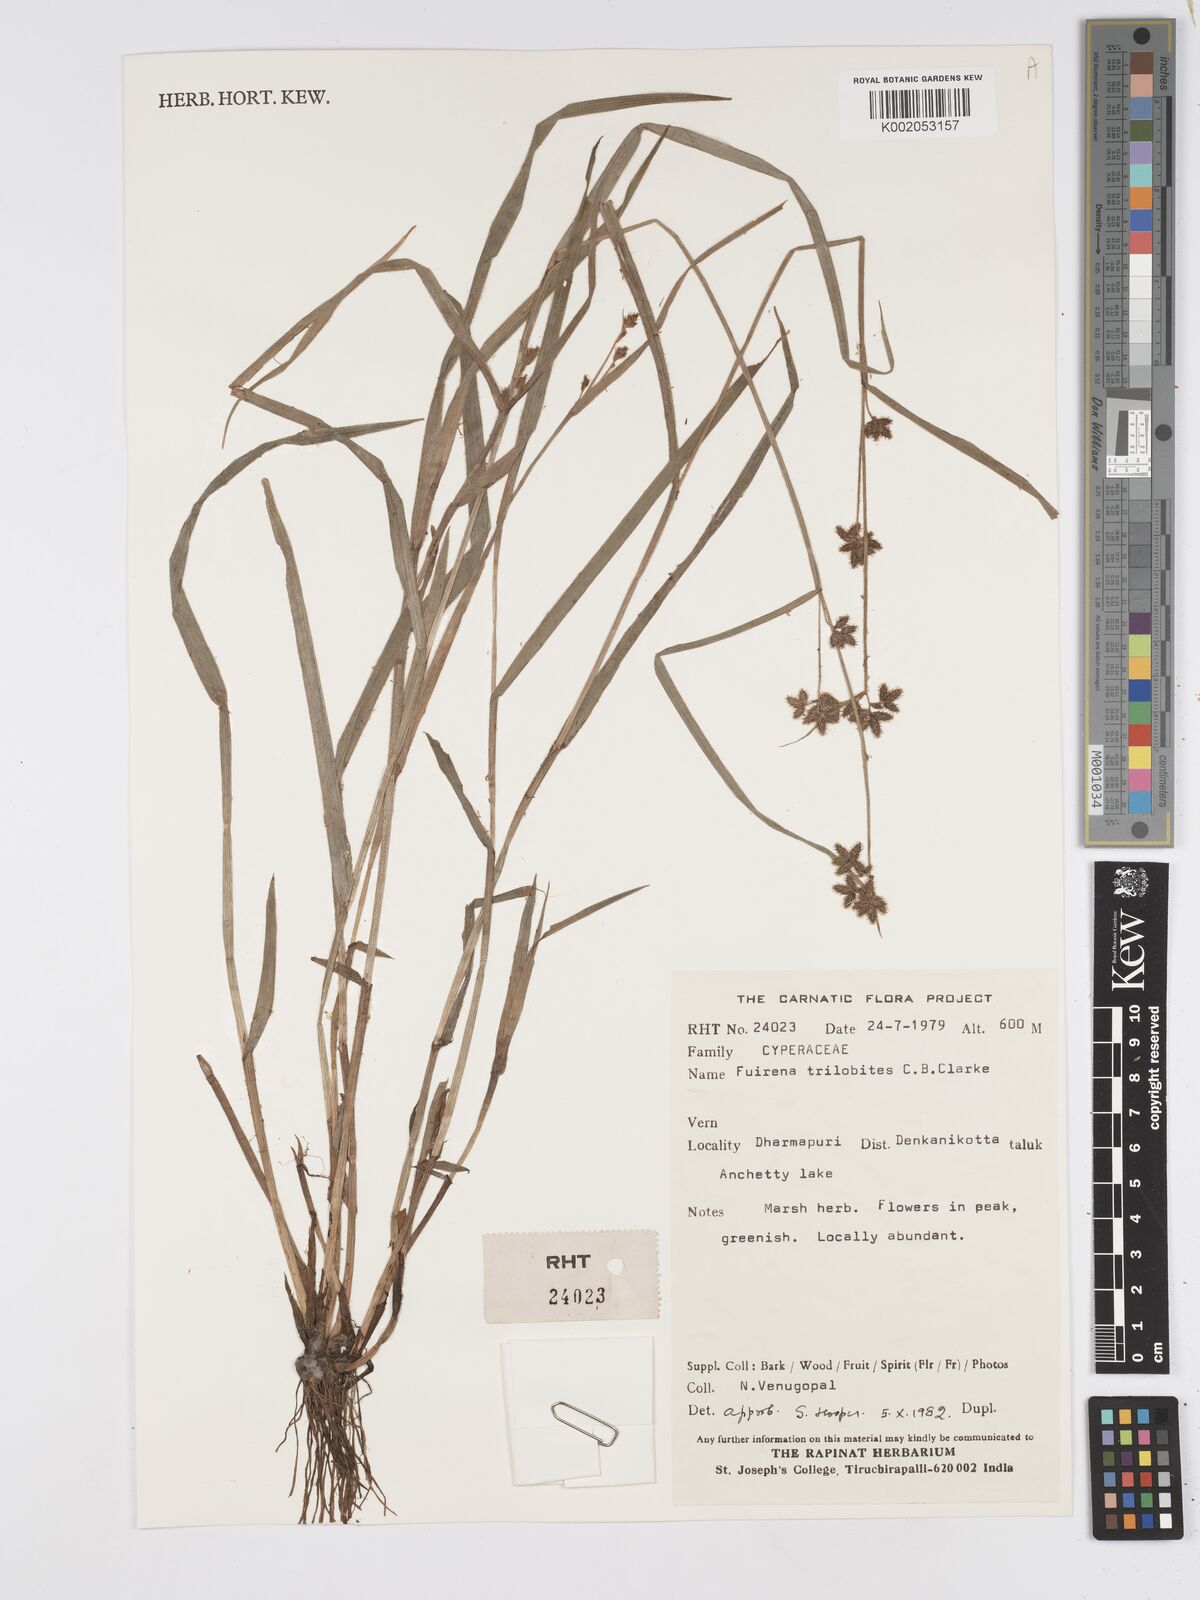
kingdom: Plantae
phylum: Tracheophyta
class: Liliopsida
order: Poales
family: Cyperaceae
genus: Fuirena
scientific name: Fuirena trilobites
